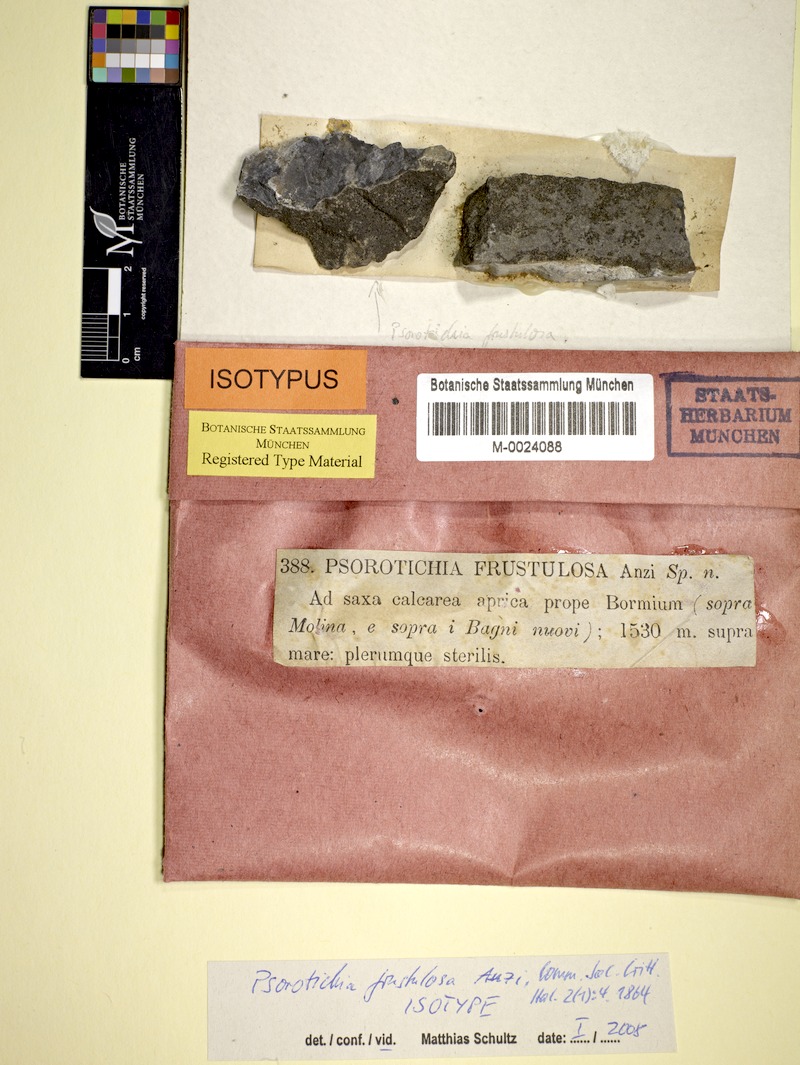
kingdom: Fungi
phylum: Ascomycota
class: Lichinomycetes
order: Lichinales
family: Lichinaceae
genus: Psorotichia
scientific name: Psorotichia frustulosa
